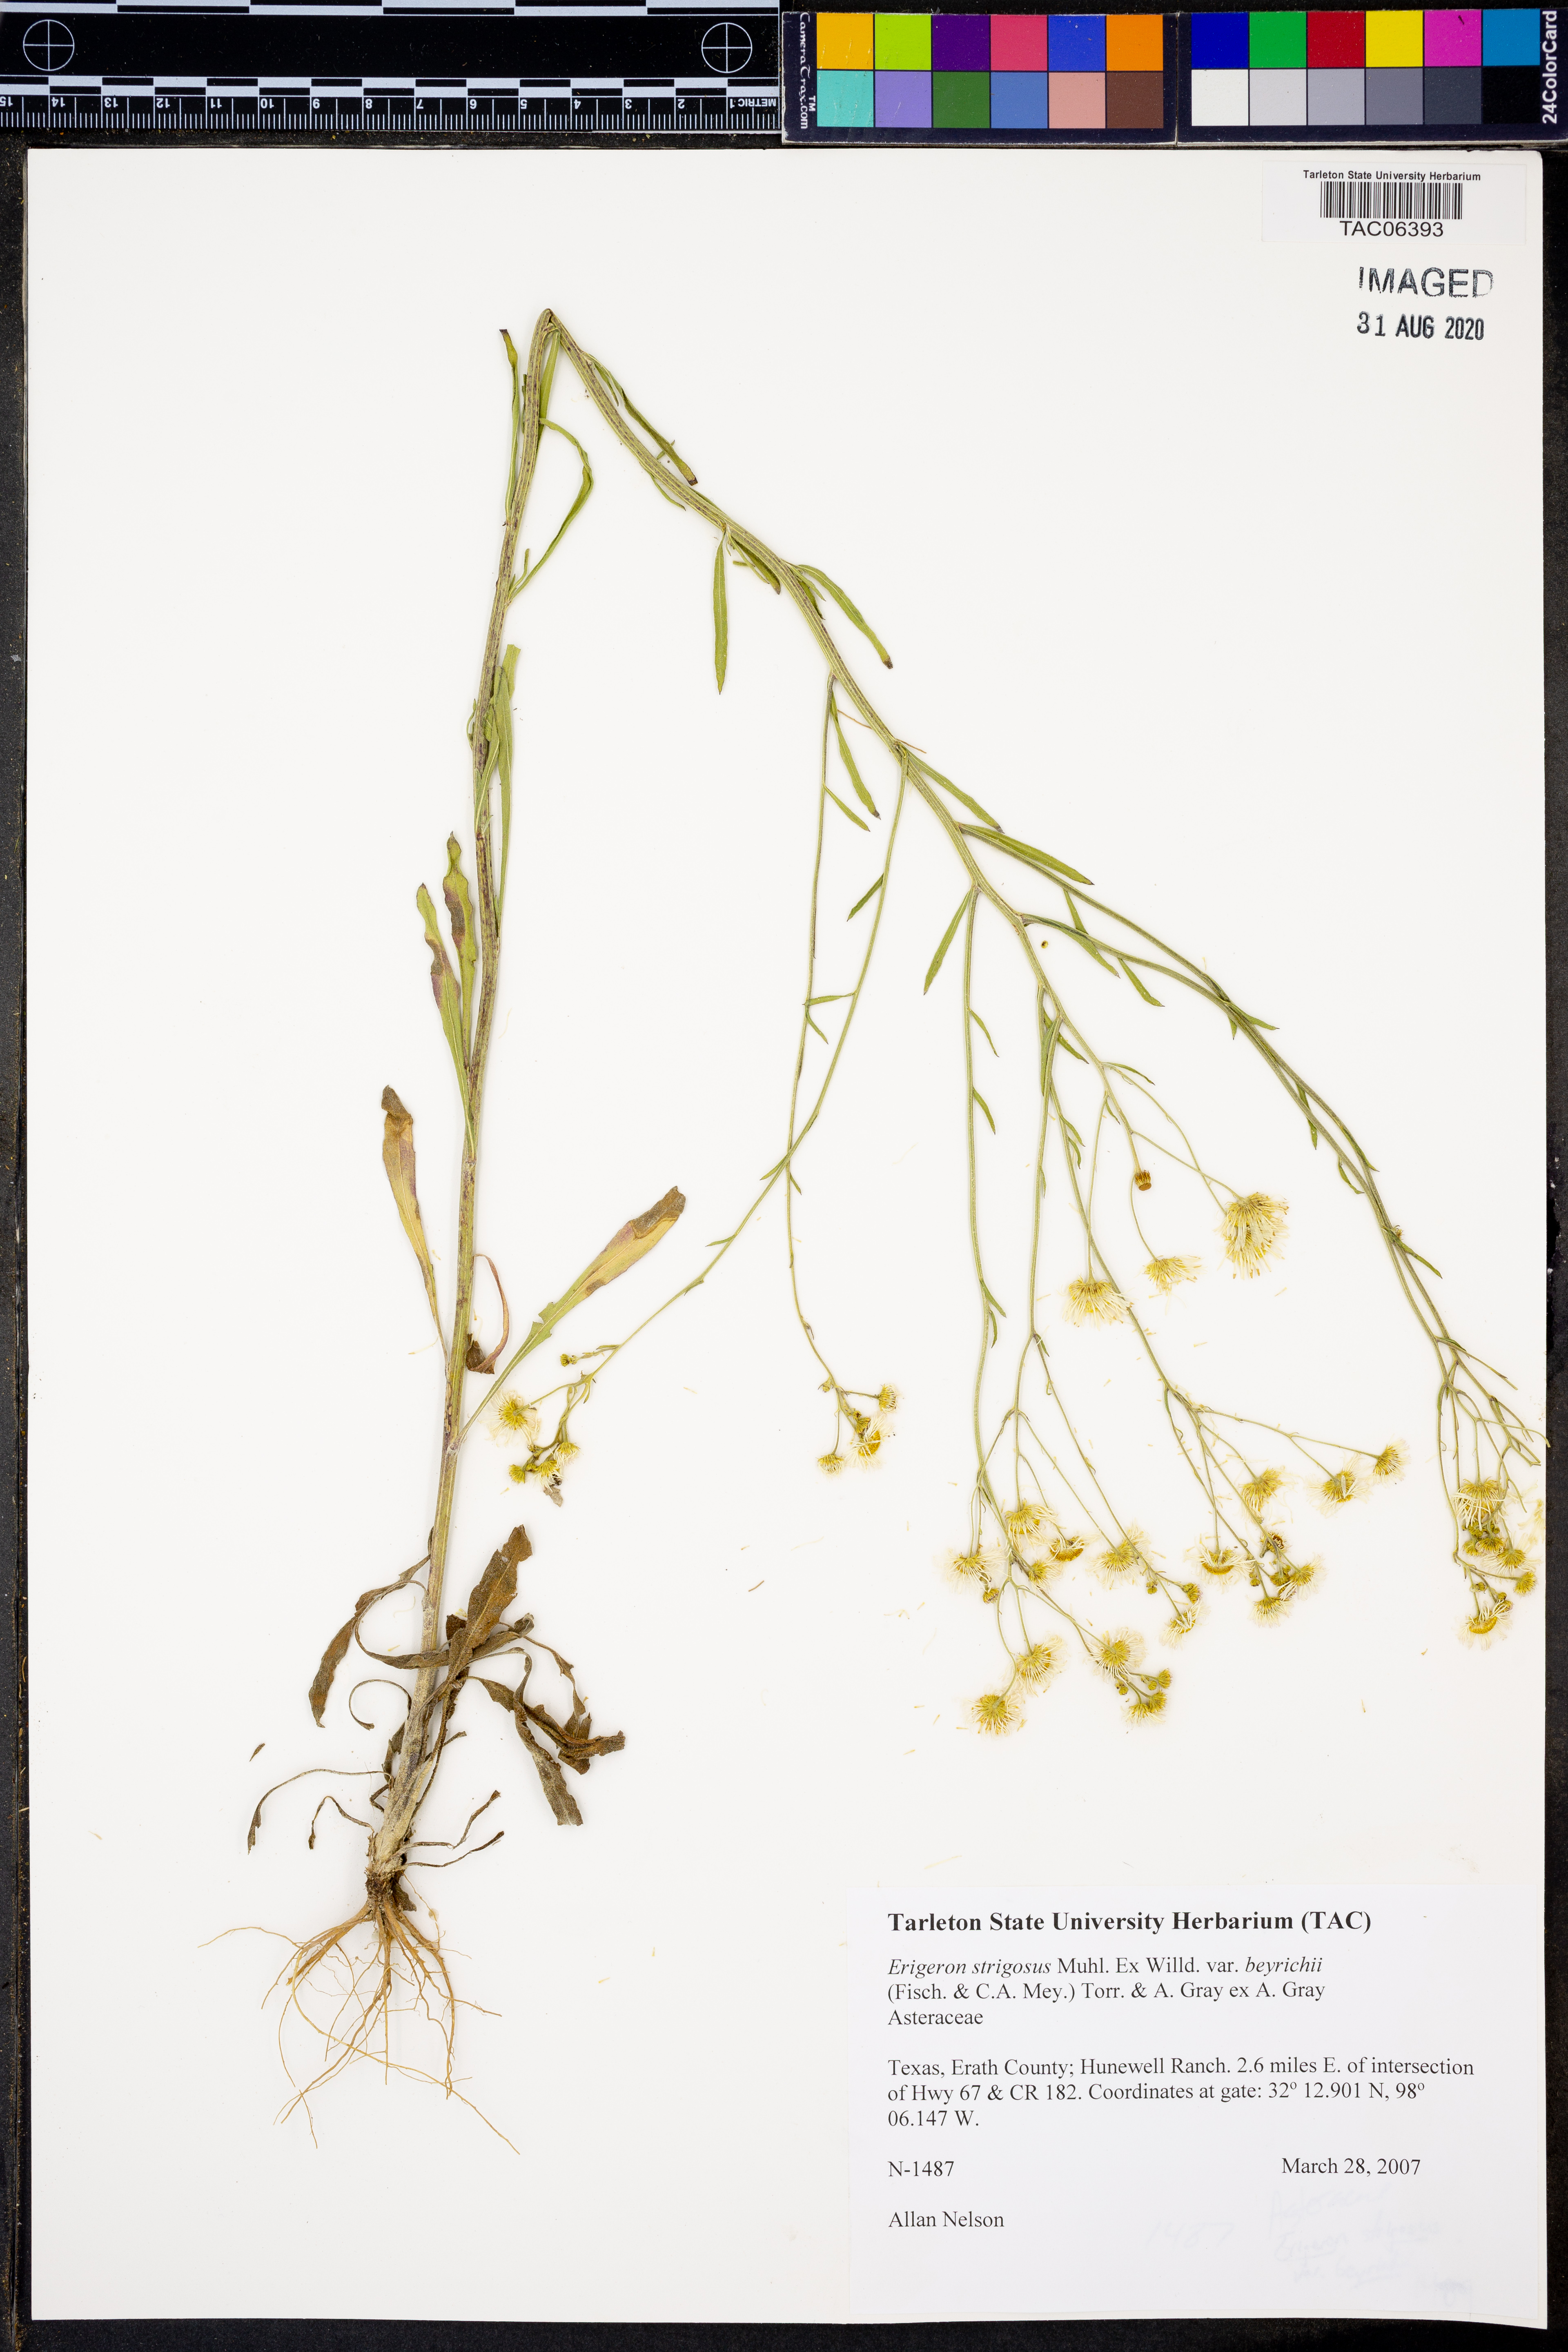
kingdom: Plantae
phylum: Tracheophyta
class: Magnoliopsida
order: Asterales
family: Asteraceae
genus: Erigeron
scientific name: Erigeron strigosus
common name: Common eastern fleabane
